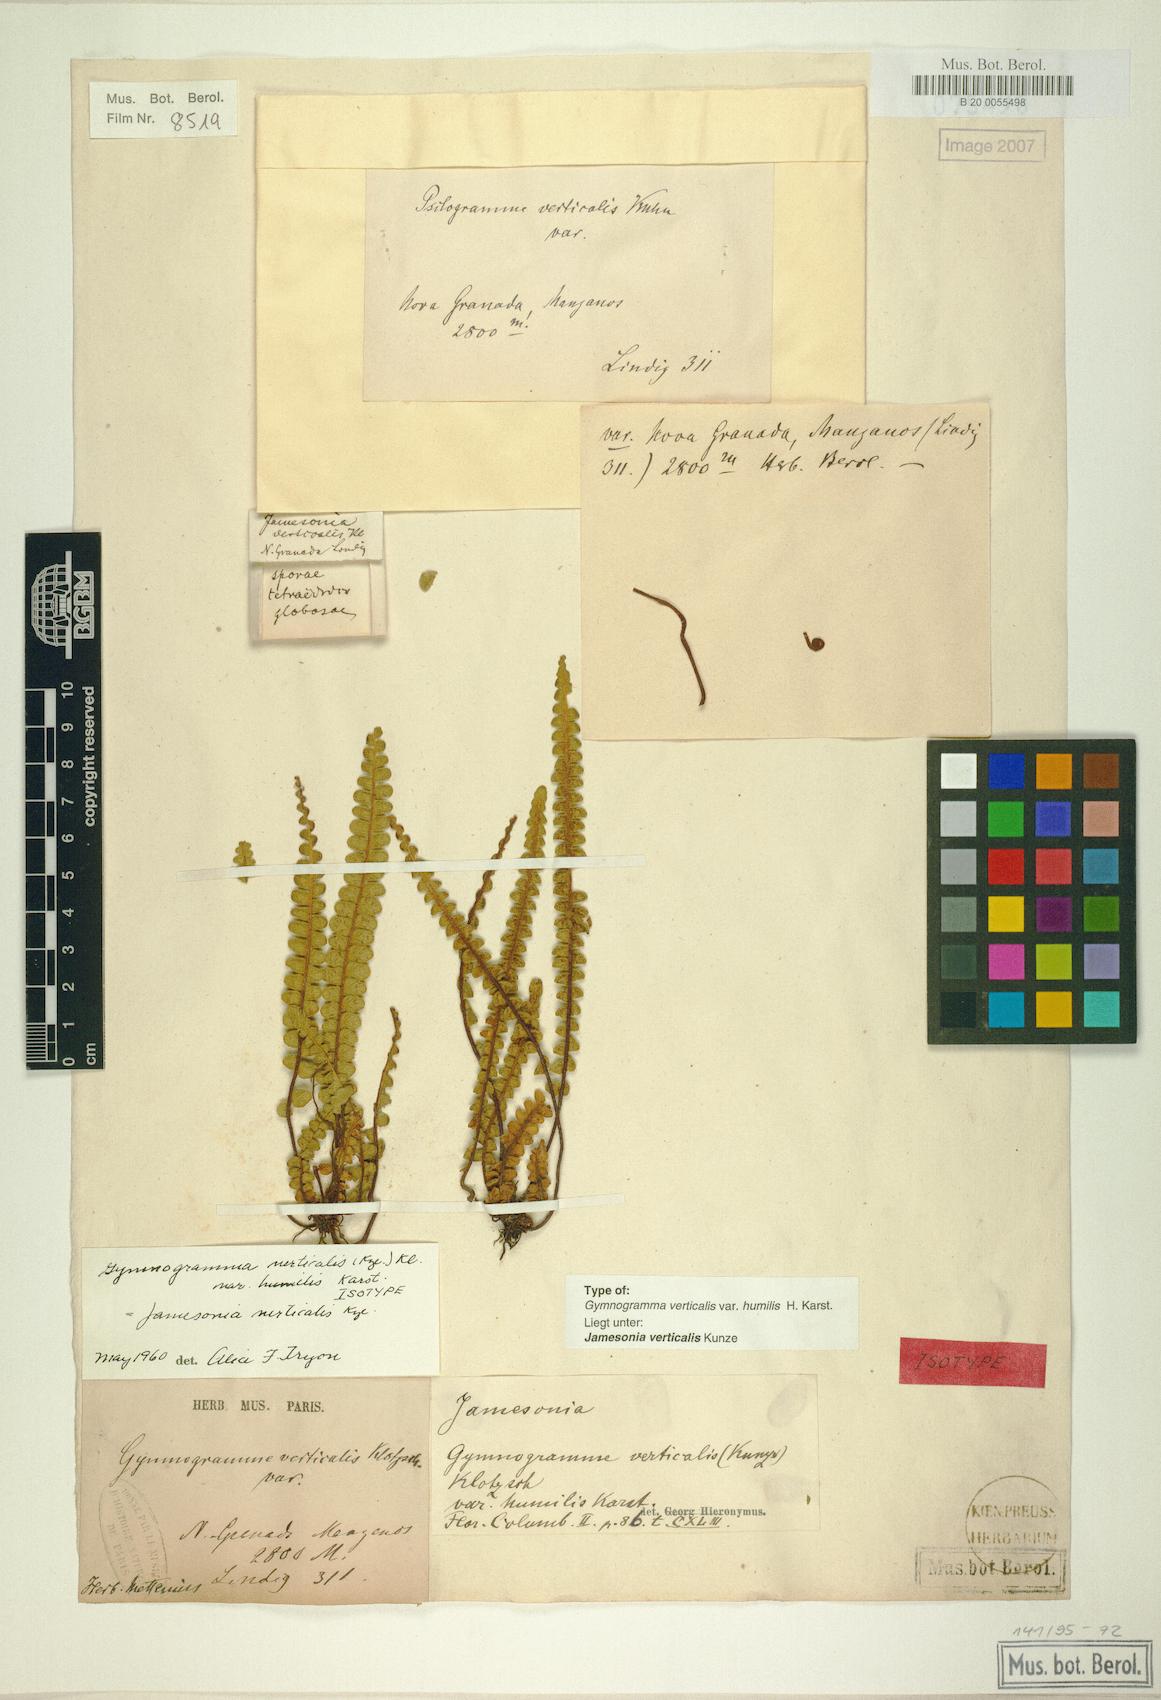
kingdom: Plantae
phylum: Tracheophyta
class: Polypodiopsida
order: Polypodiales
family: Pteridaceae
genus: Jamesonia
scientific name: Jamesonia verticalis
